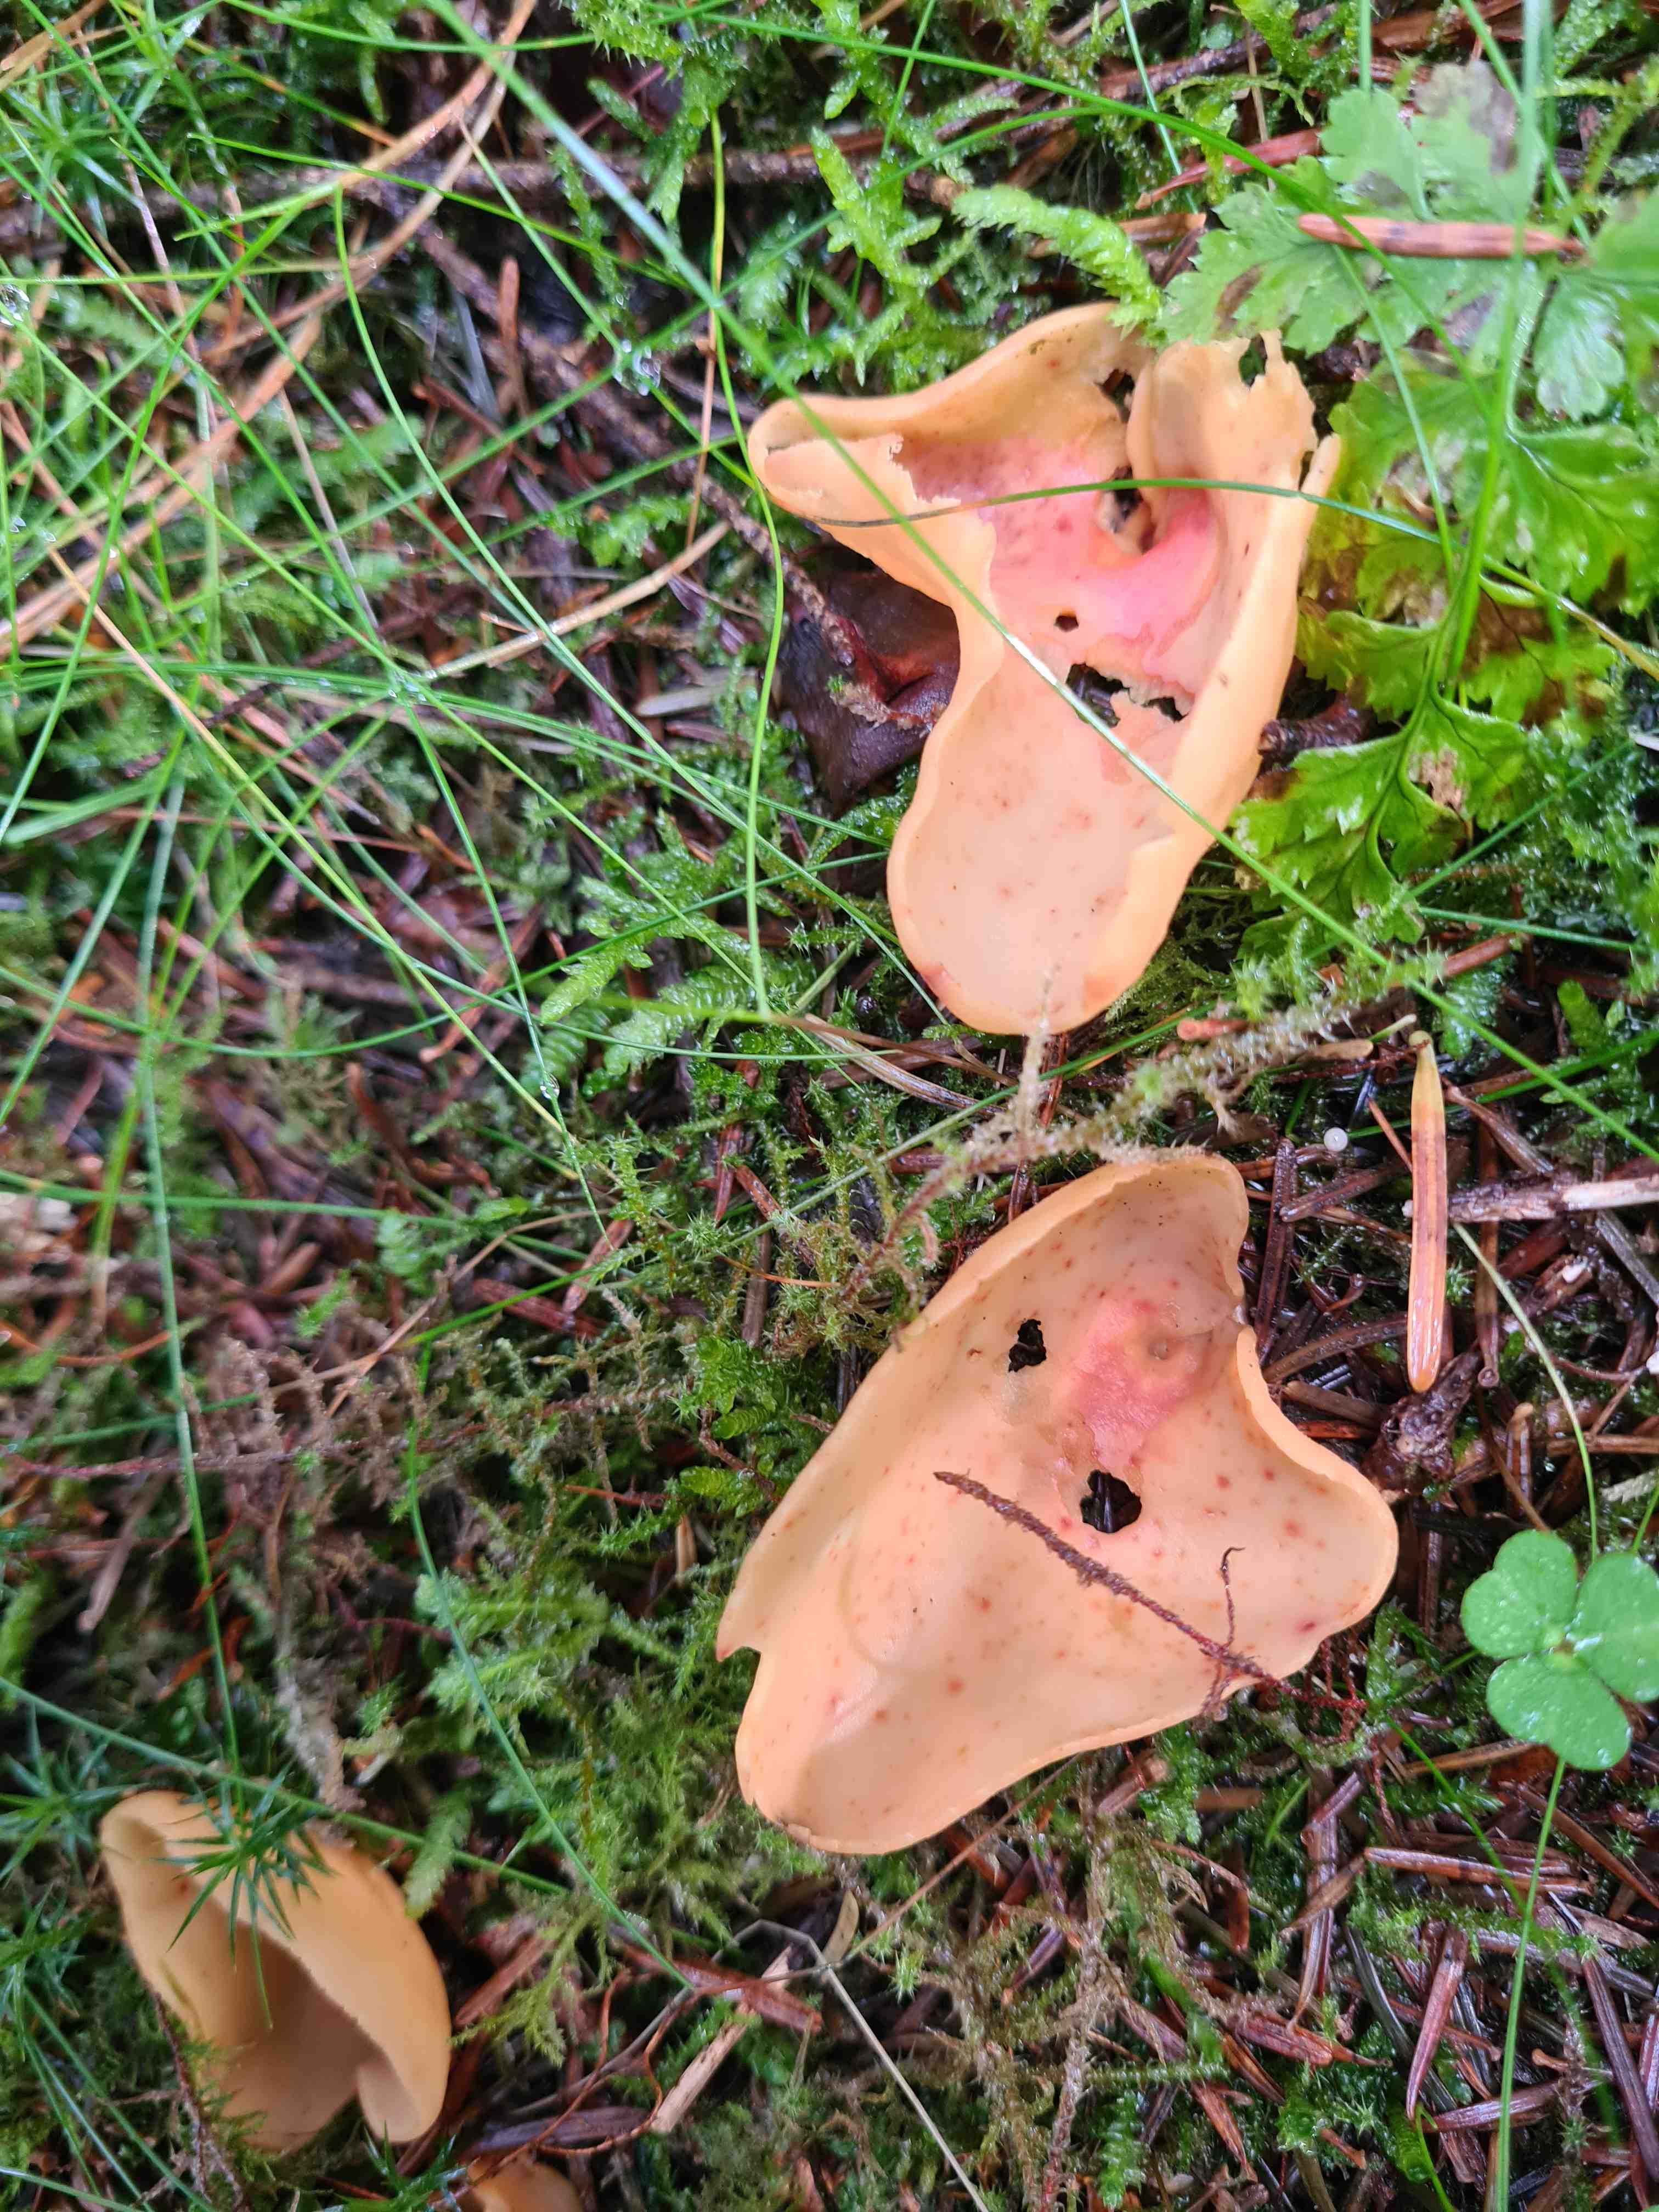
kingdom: Fungi
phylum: Ascomycota
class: Pezizomycetes
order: Pezizales
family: Otideaceae
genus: Otidea
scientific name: Otidea onotica
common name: æsel-ørebæger
